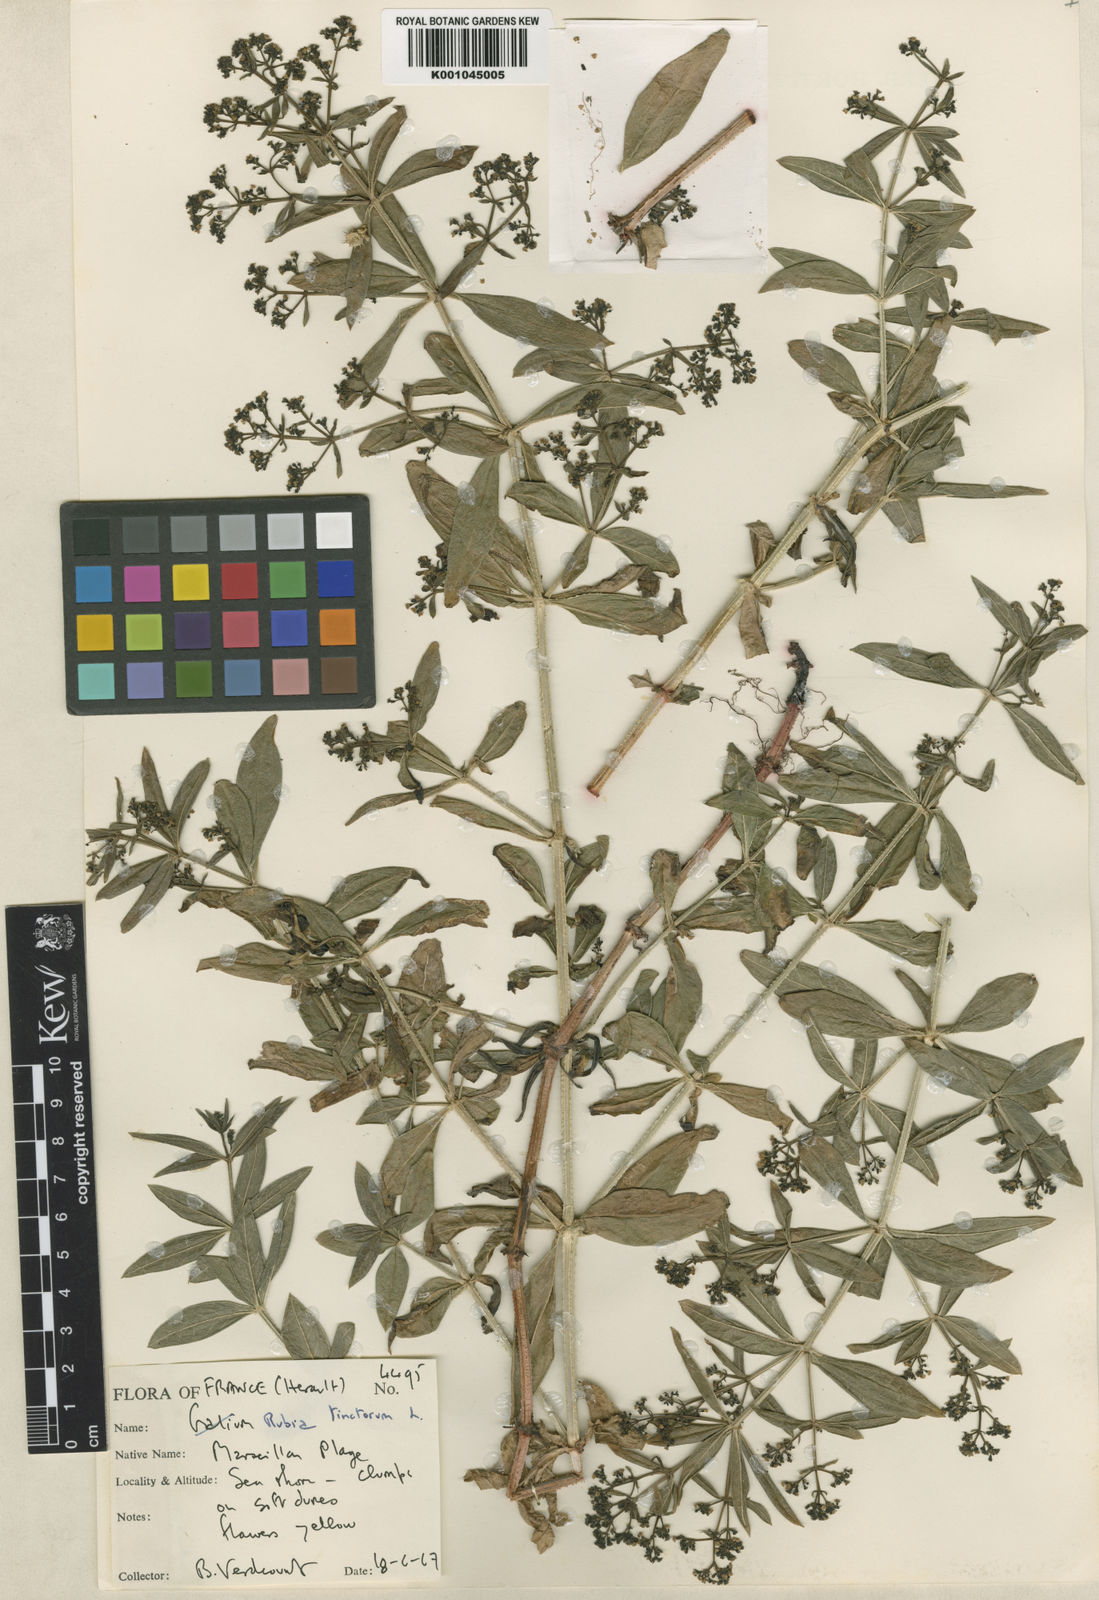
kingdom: Plantae
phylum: Tracheophyta
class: Magnoliopsida
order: Gentianales
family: Rubiaceae
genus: Rubia
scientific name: Rubia tinctorum
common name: Dyer's madder
